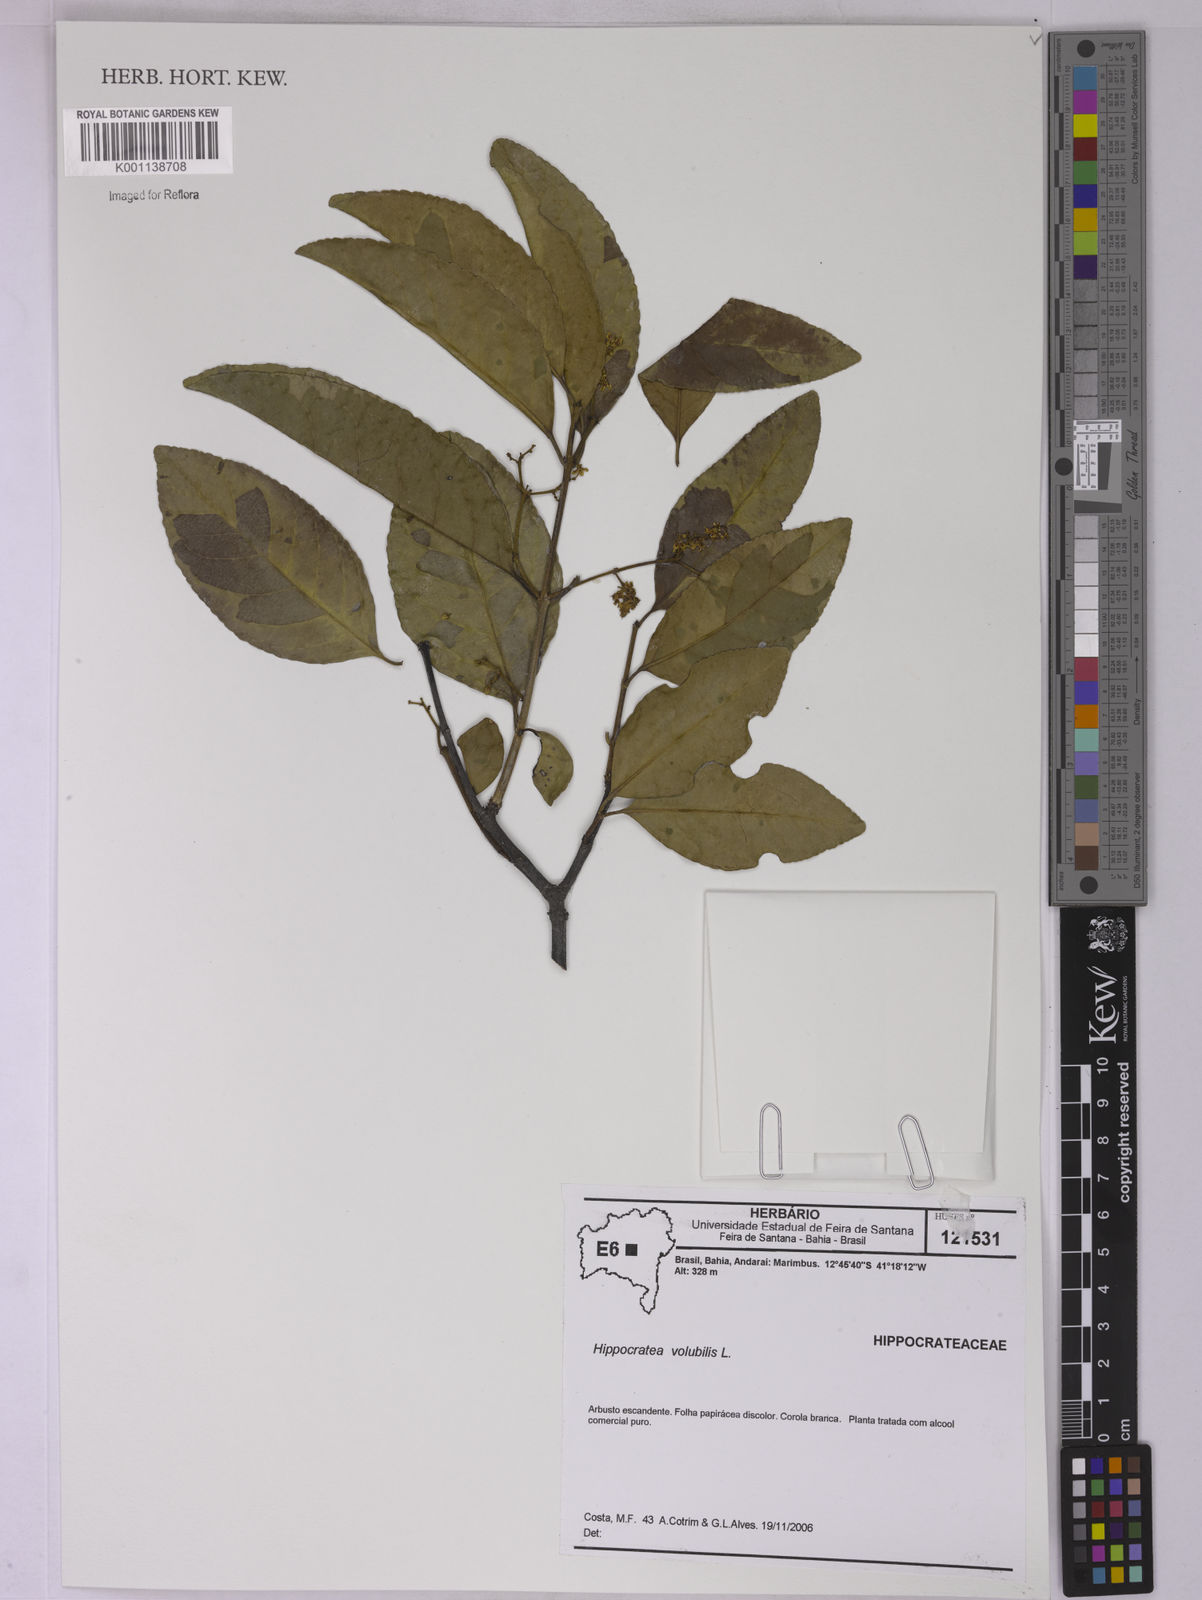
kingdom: Plantae
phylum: Tracheophyta
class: Magnoliopsida
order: Celastrales
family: Celastraceae
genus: Hippocratea
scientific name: Hippocratea volubilis
